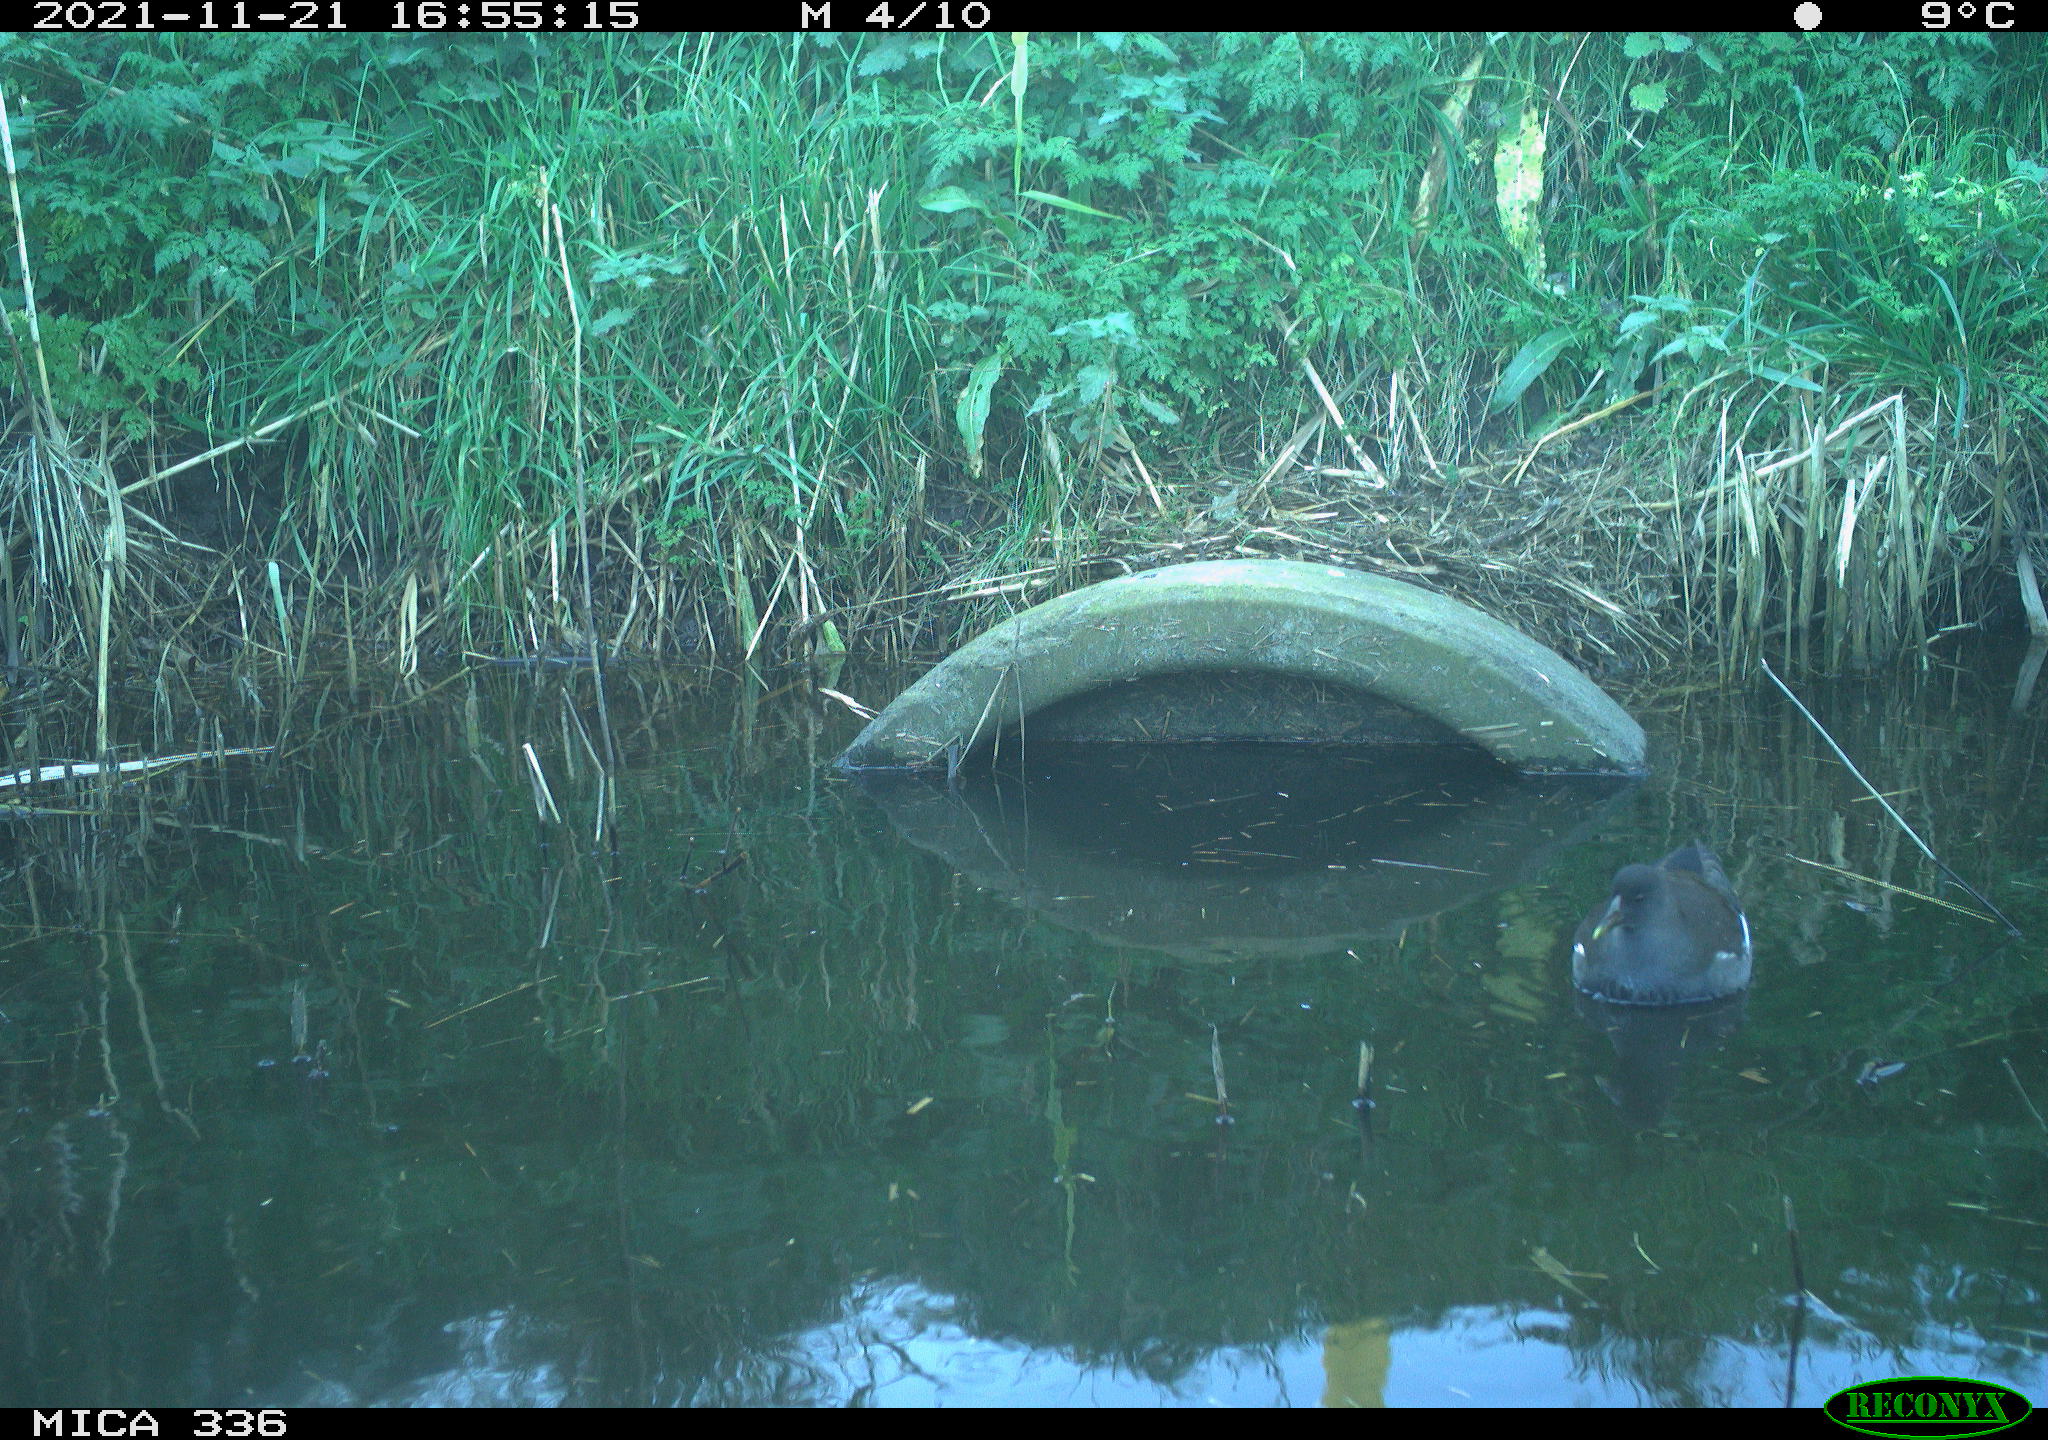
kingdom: Animalia
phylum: Chordata
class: Aves
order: Gruiformes
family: Rallidae
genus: Gallinula
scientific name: Gallinula chloropus
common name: Common moorhen
